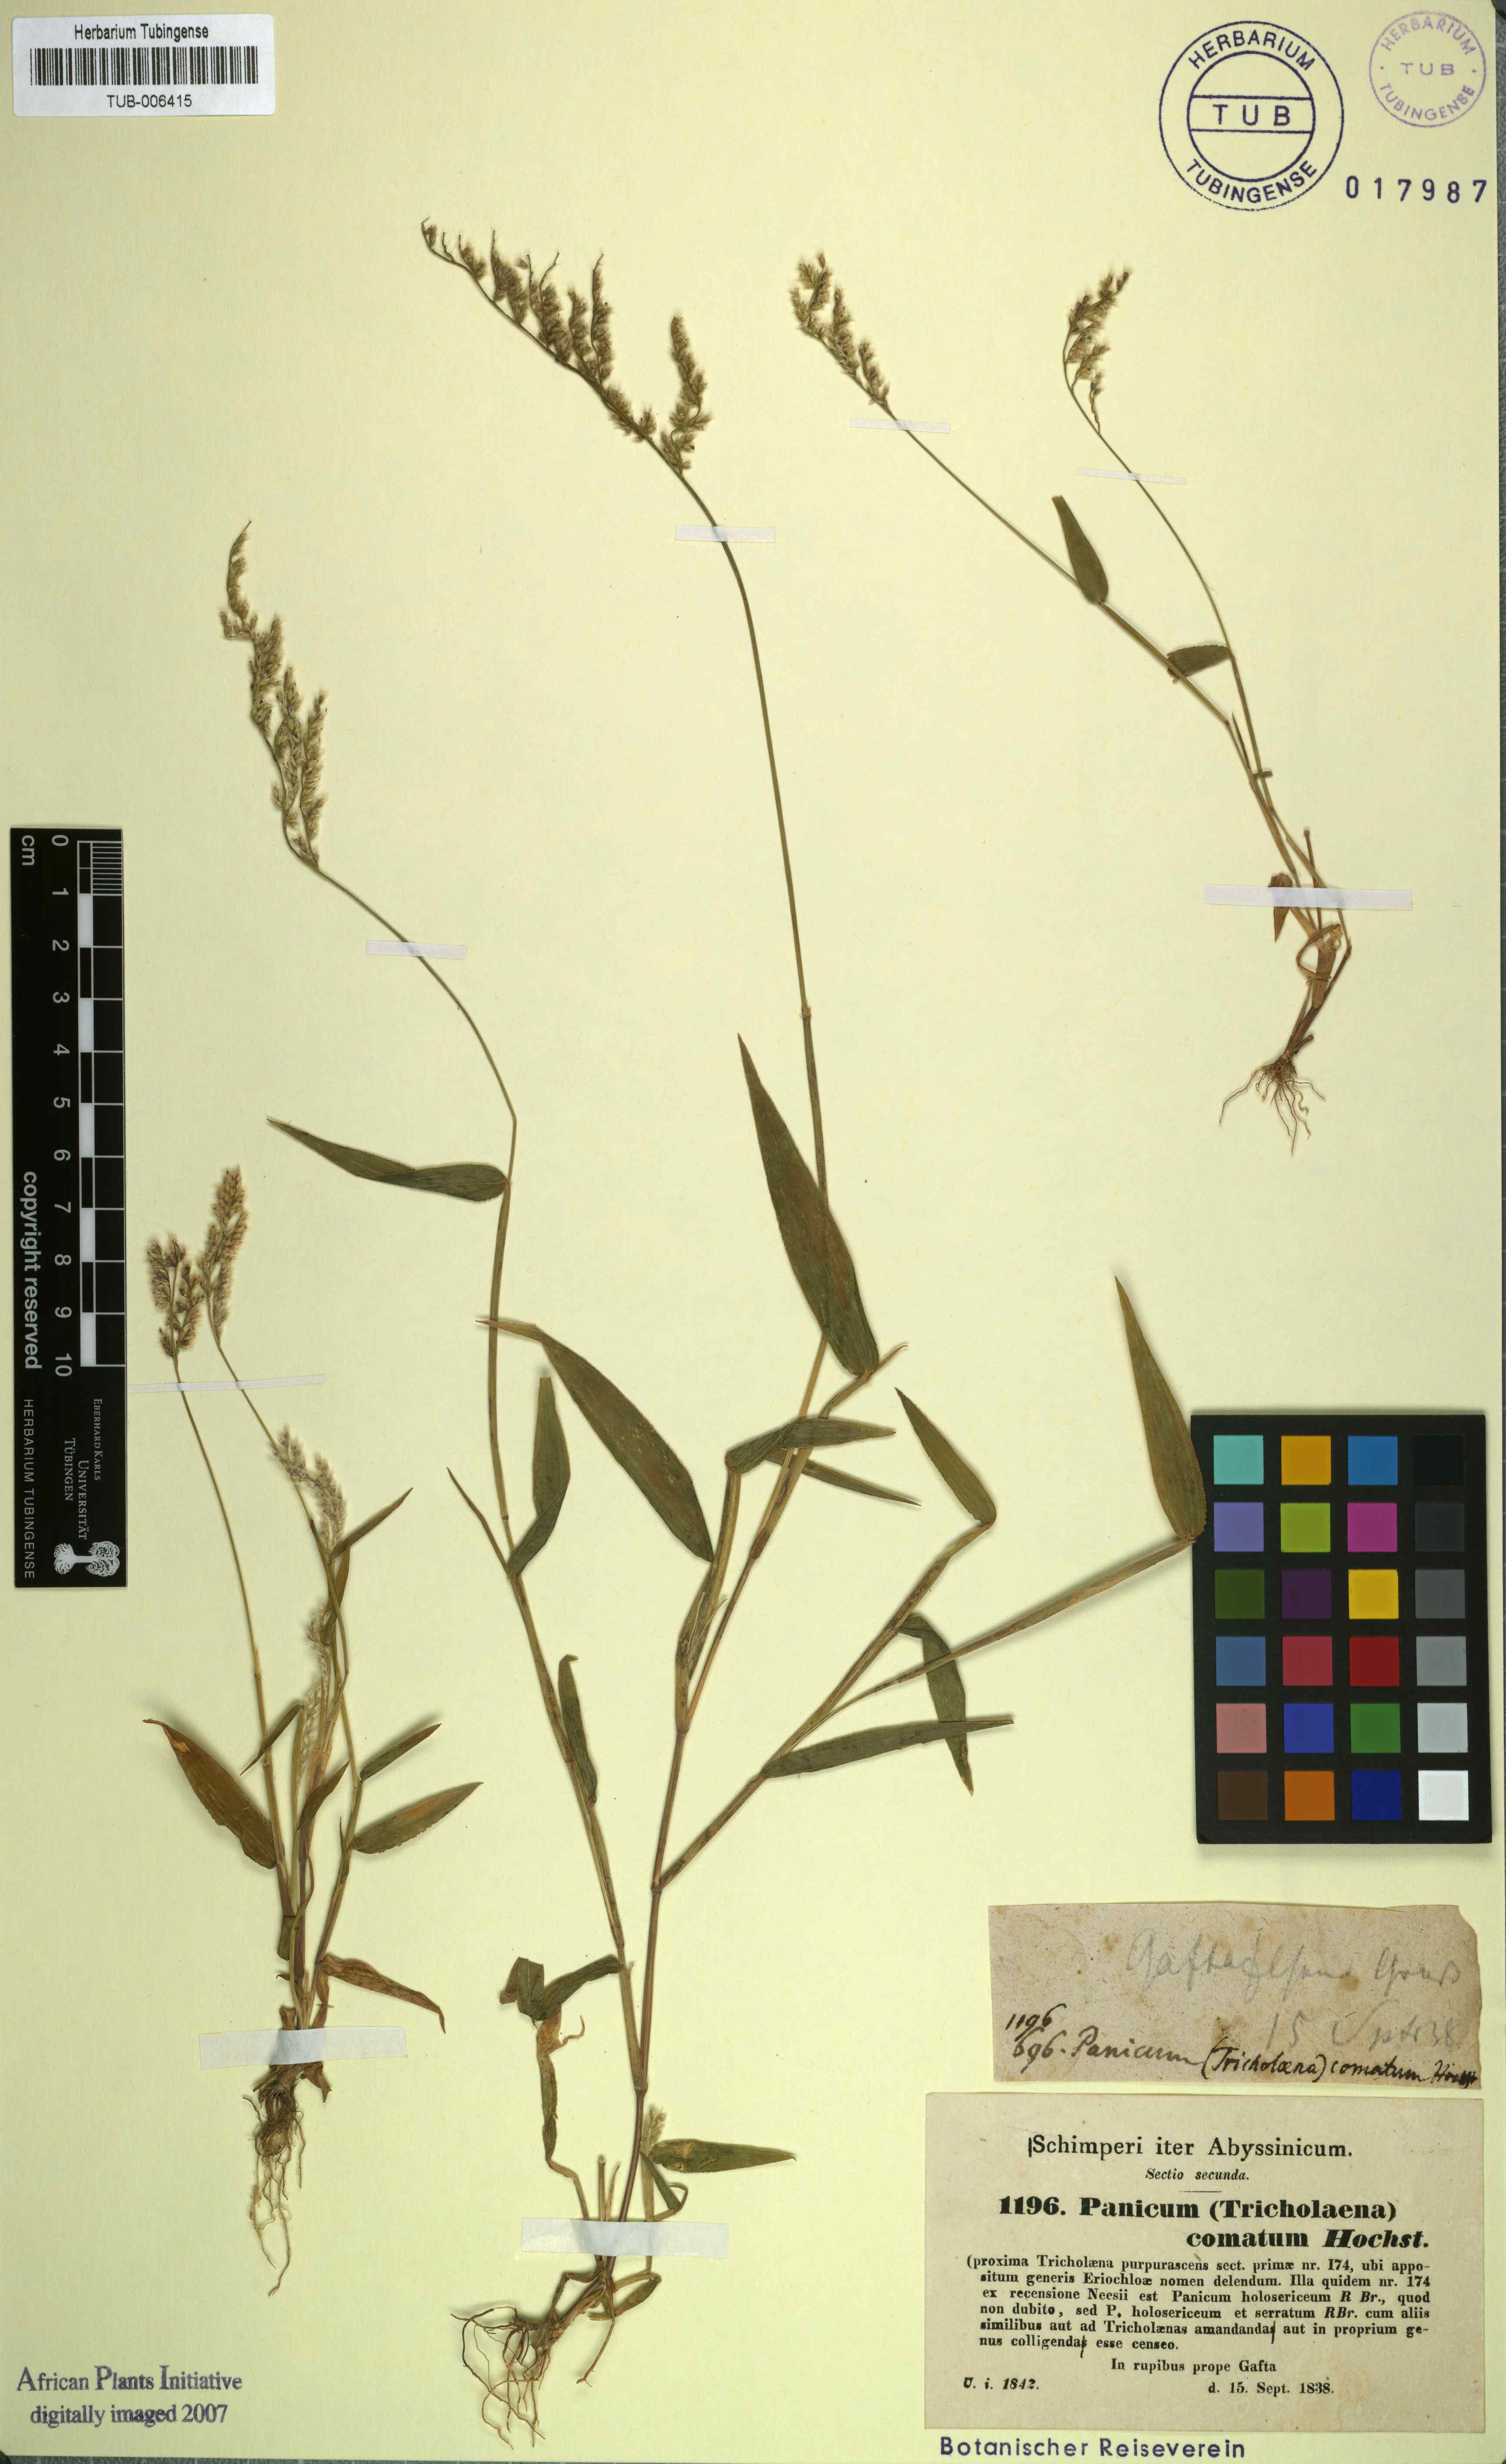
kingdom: Plantae
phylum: Tracheophyta
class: Liliopsida
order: Poales
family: Poaceae
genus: Urochloa
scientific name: Urochloa comata
